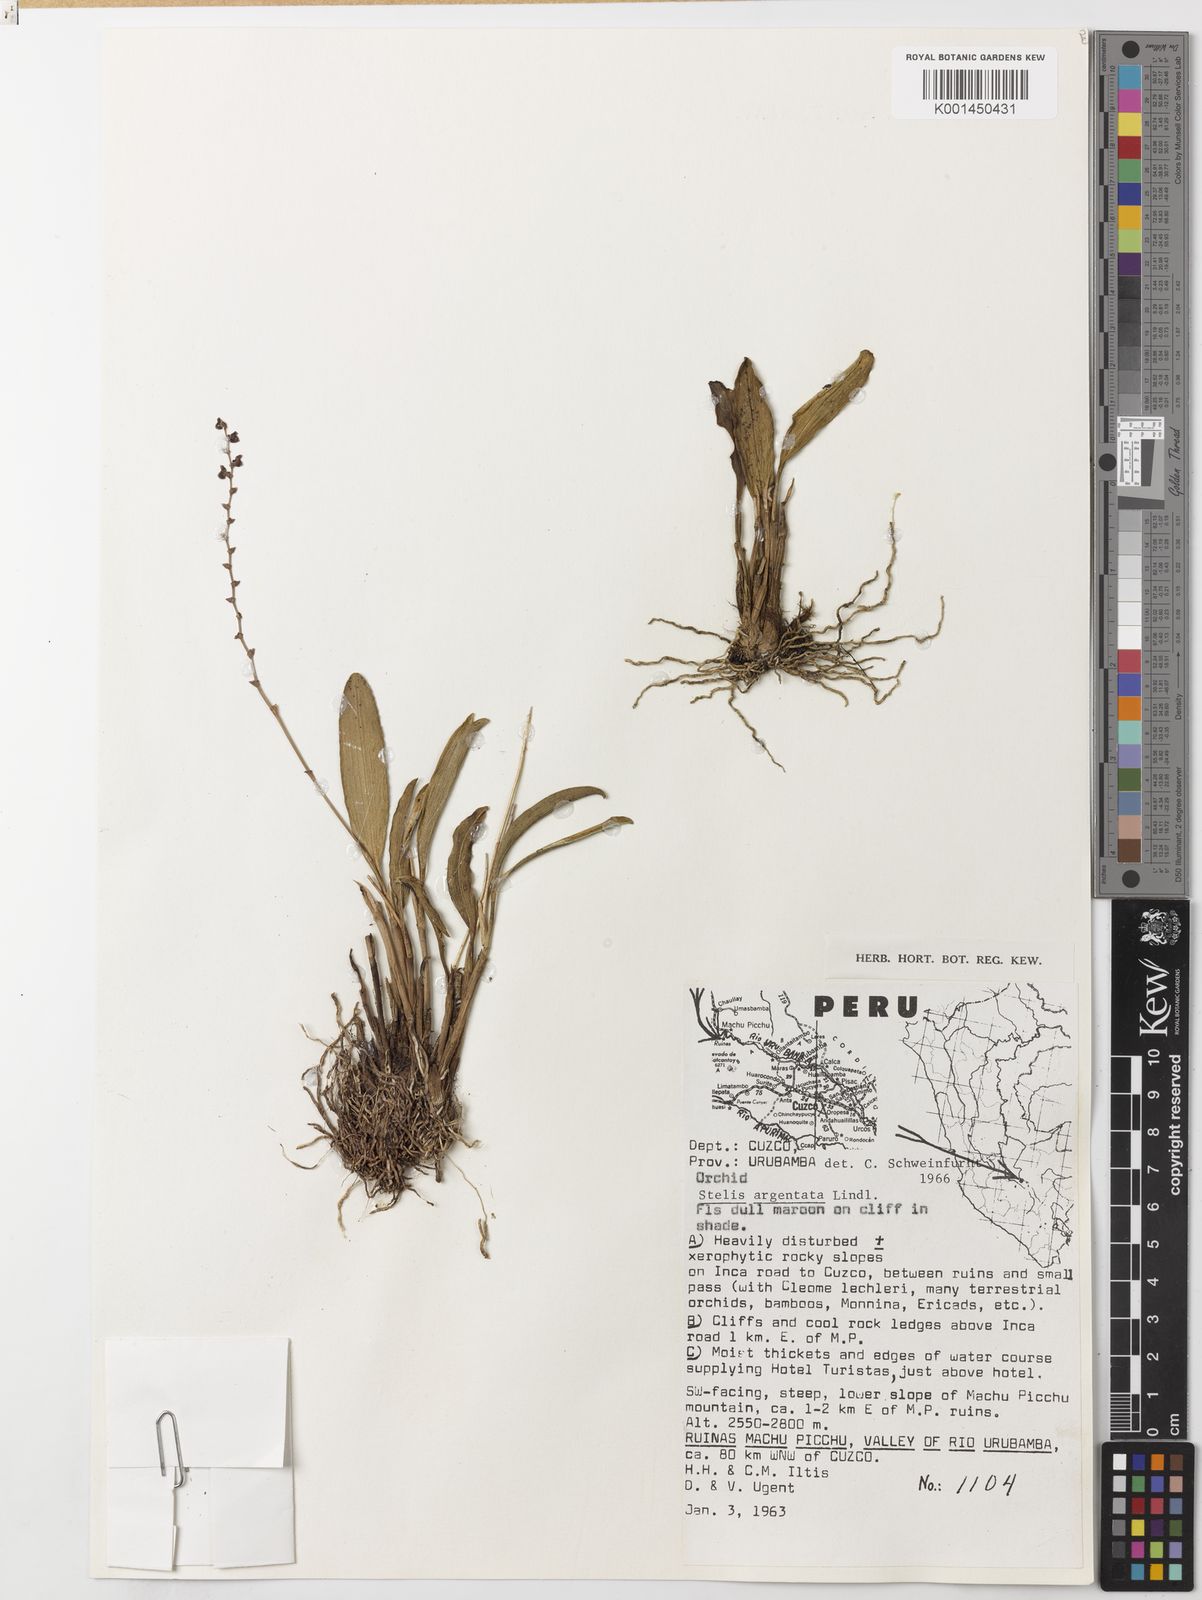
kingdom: Plantae
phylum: Tracheophyta
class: Liliopsida
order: Asparagales
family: Orchidaceae
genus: Stelis
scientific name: Stelis argentata
